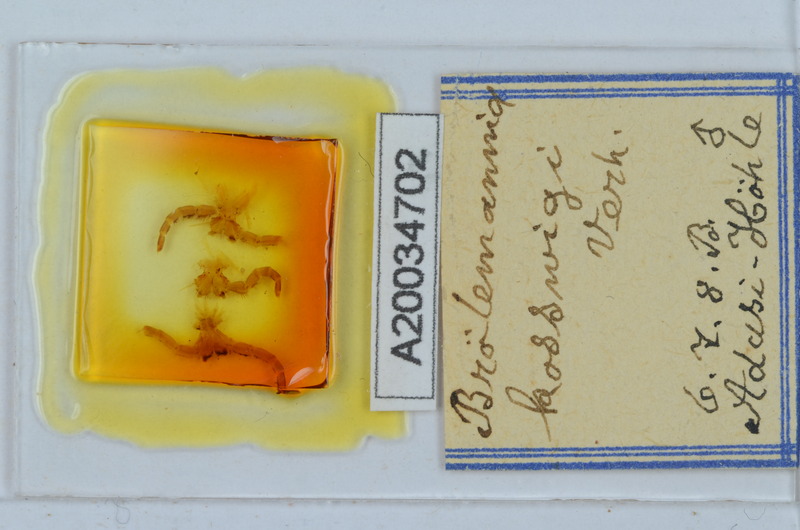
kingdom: Animalia
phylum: Arthropoda
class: Diplopoda
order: Callipodida
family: Schizopetalidae
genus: Eurygyrus
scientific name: Eurygyrus bilselii
